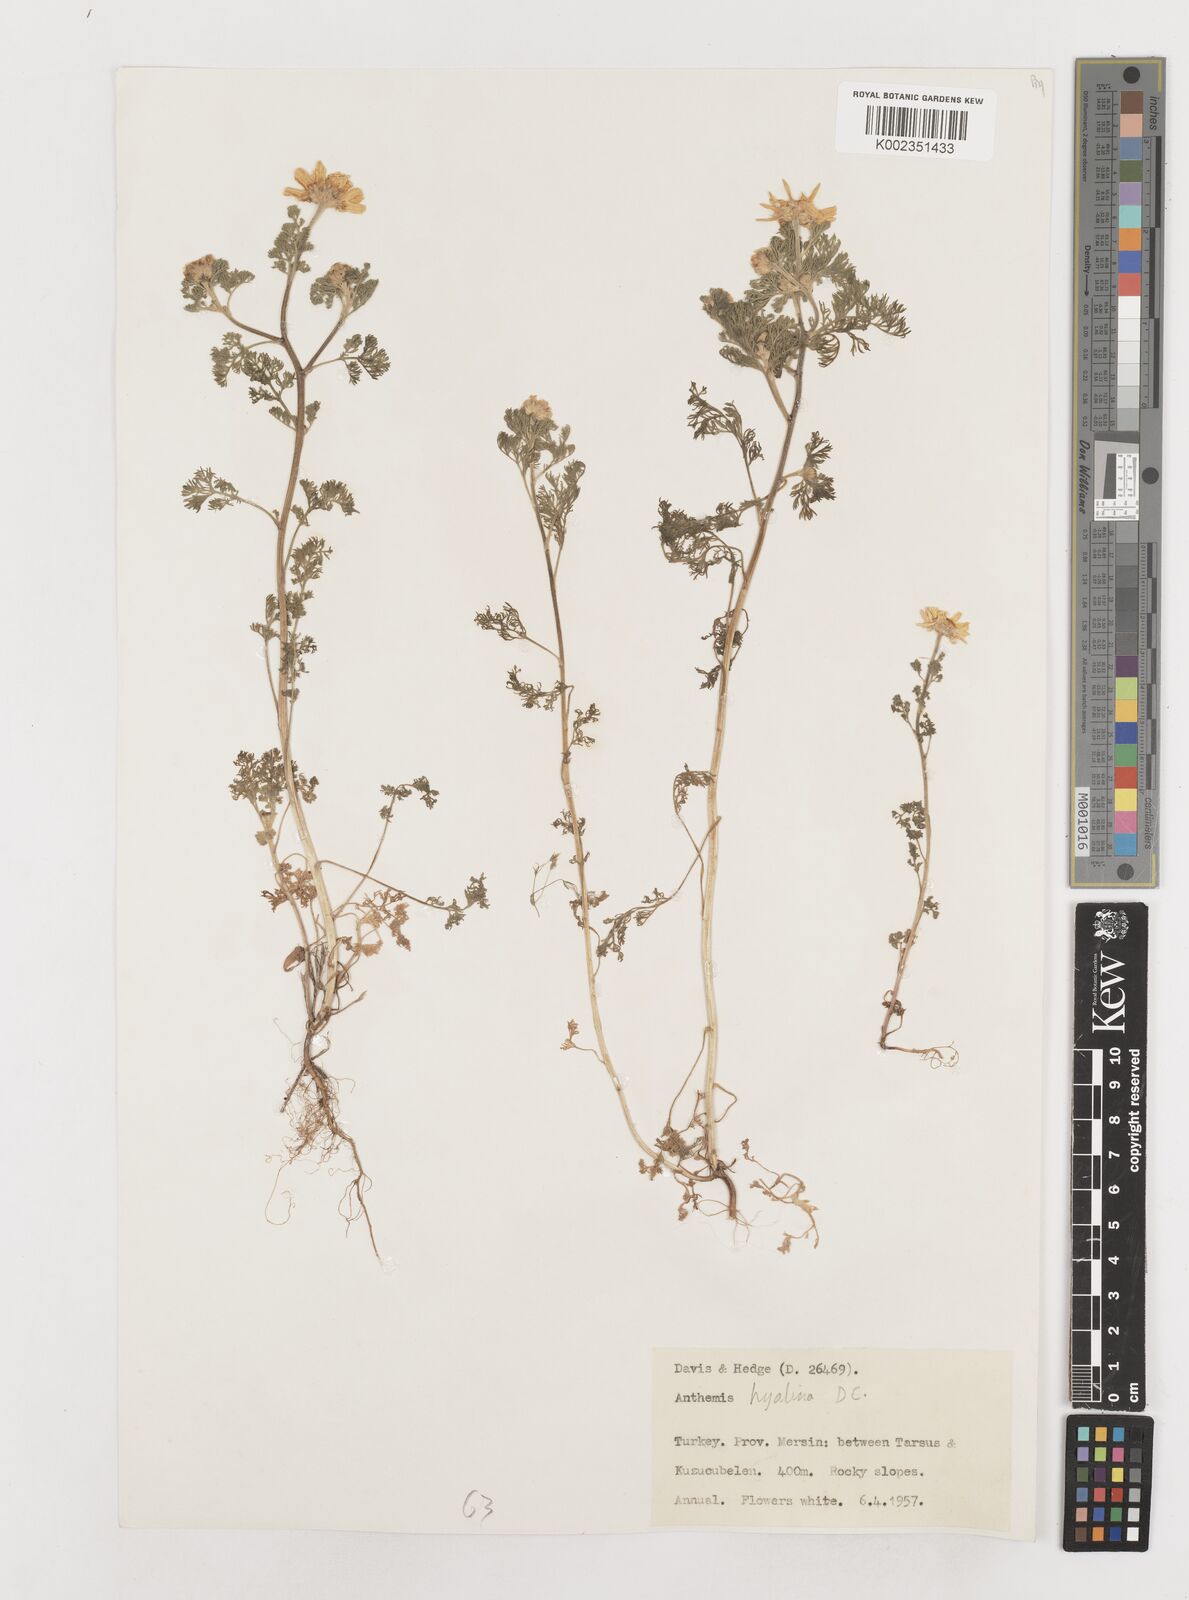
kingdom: Plantae
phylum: Tracheophyta
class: Magnoliopsida
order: Asterales
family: Asteraceae
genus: Anthemis
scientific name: Anthemis hyalina
